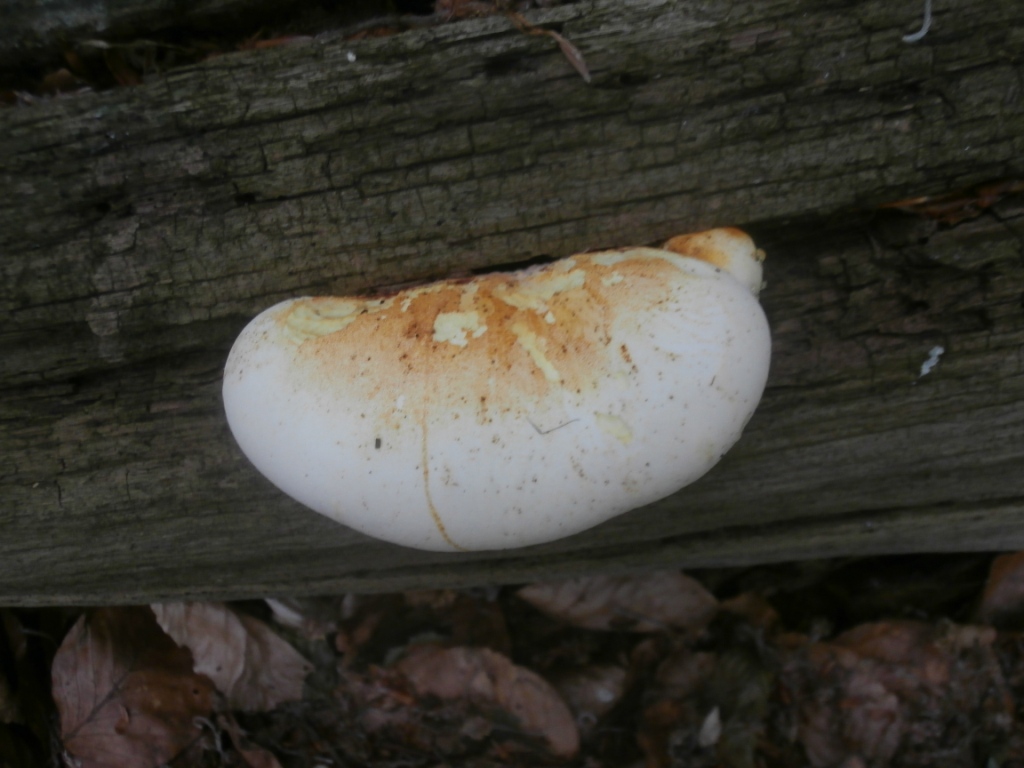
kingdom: Fungi
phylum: Basidiomycota
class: Agaricomycetes
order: Polyporales
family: Fomitopsidaceae
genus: Buglossoporus
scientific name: Buglossoporus quercinus
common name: egetunge
